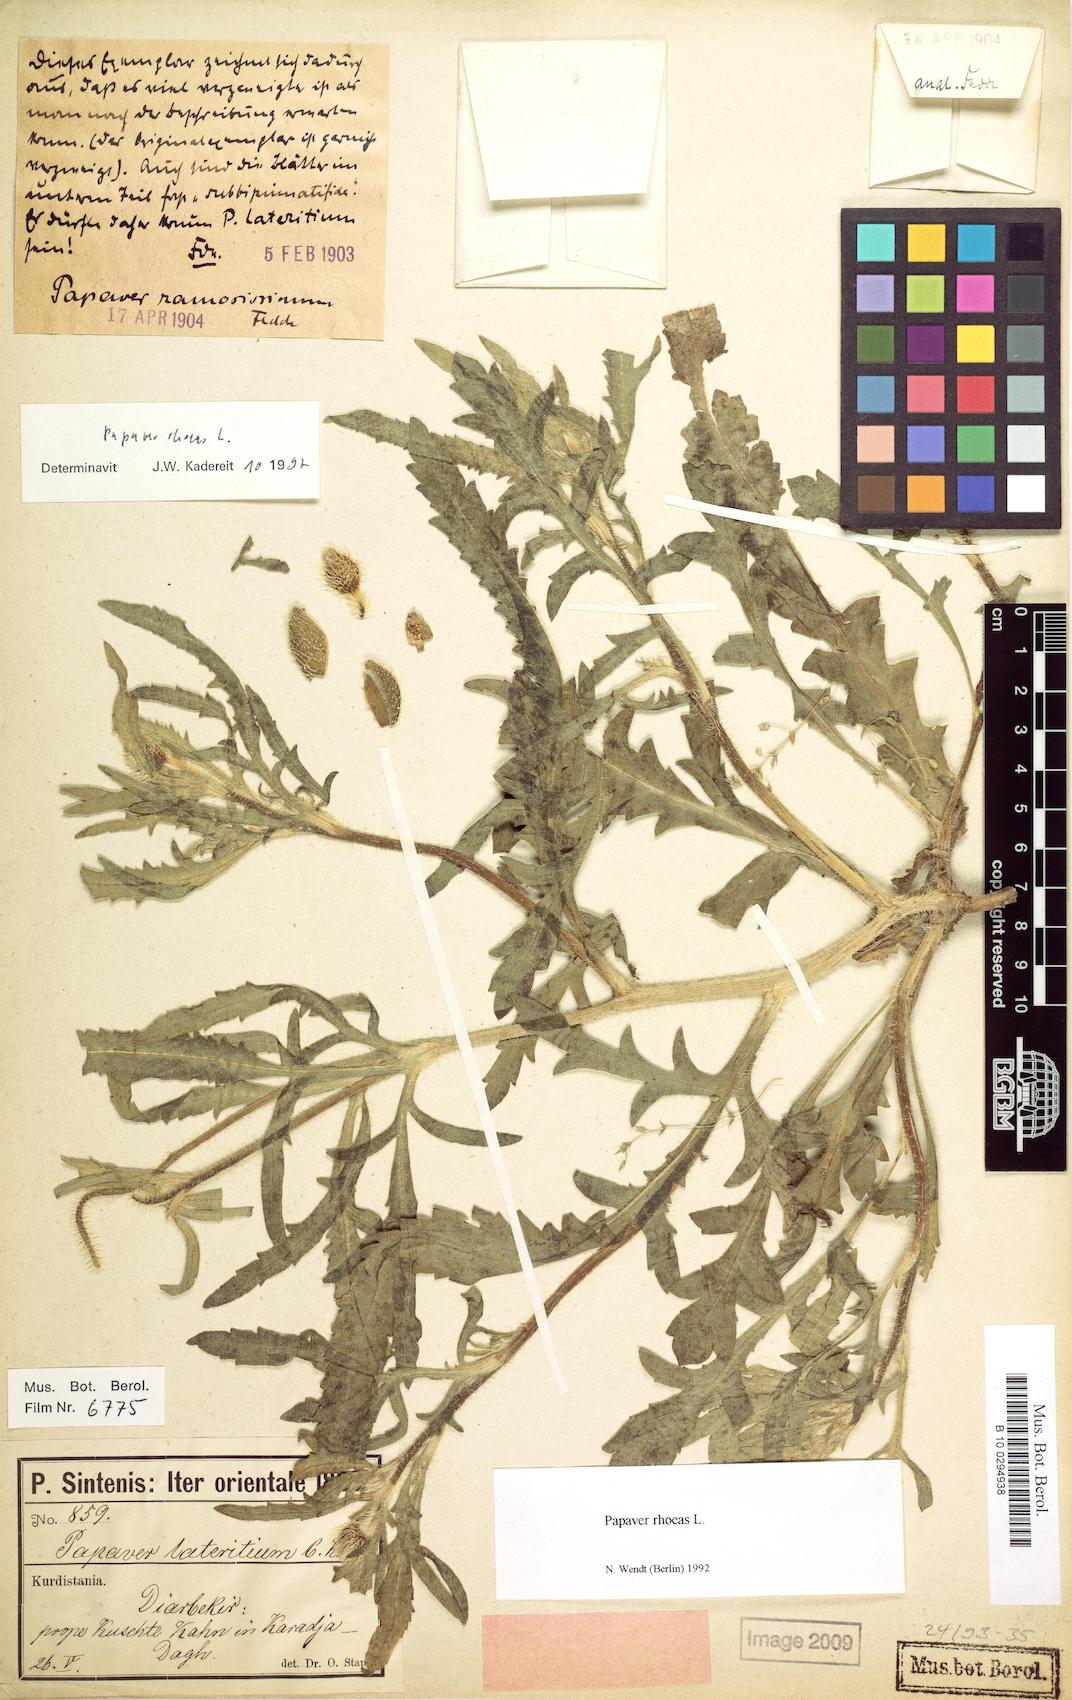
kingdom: Plantae
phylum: Tracheophyta
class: Magnoliopsida
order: Ranunculales
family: Papaveraceae
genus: Papaver
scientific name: Papaver rhoeas
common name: Corn poppy
